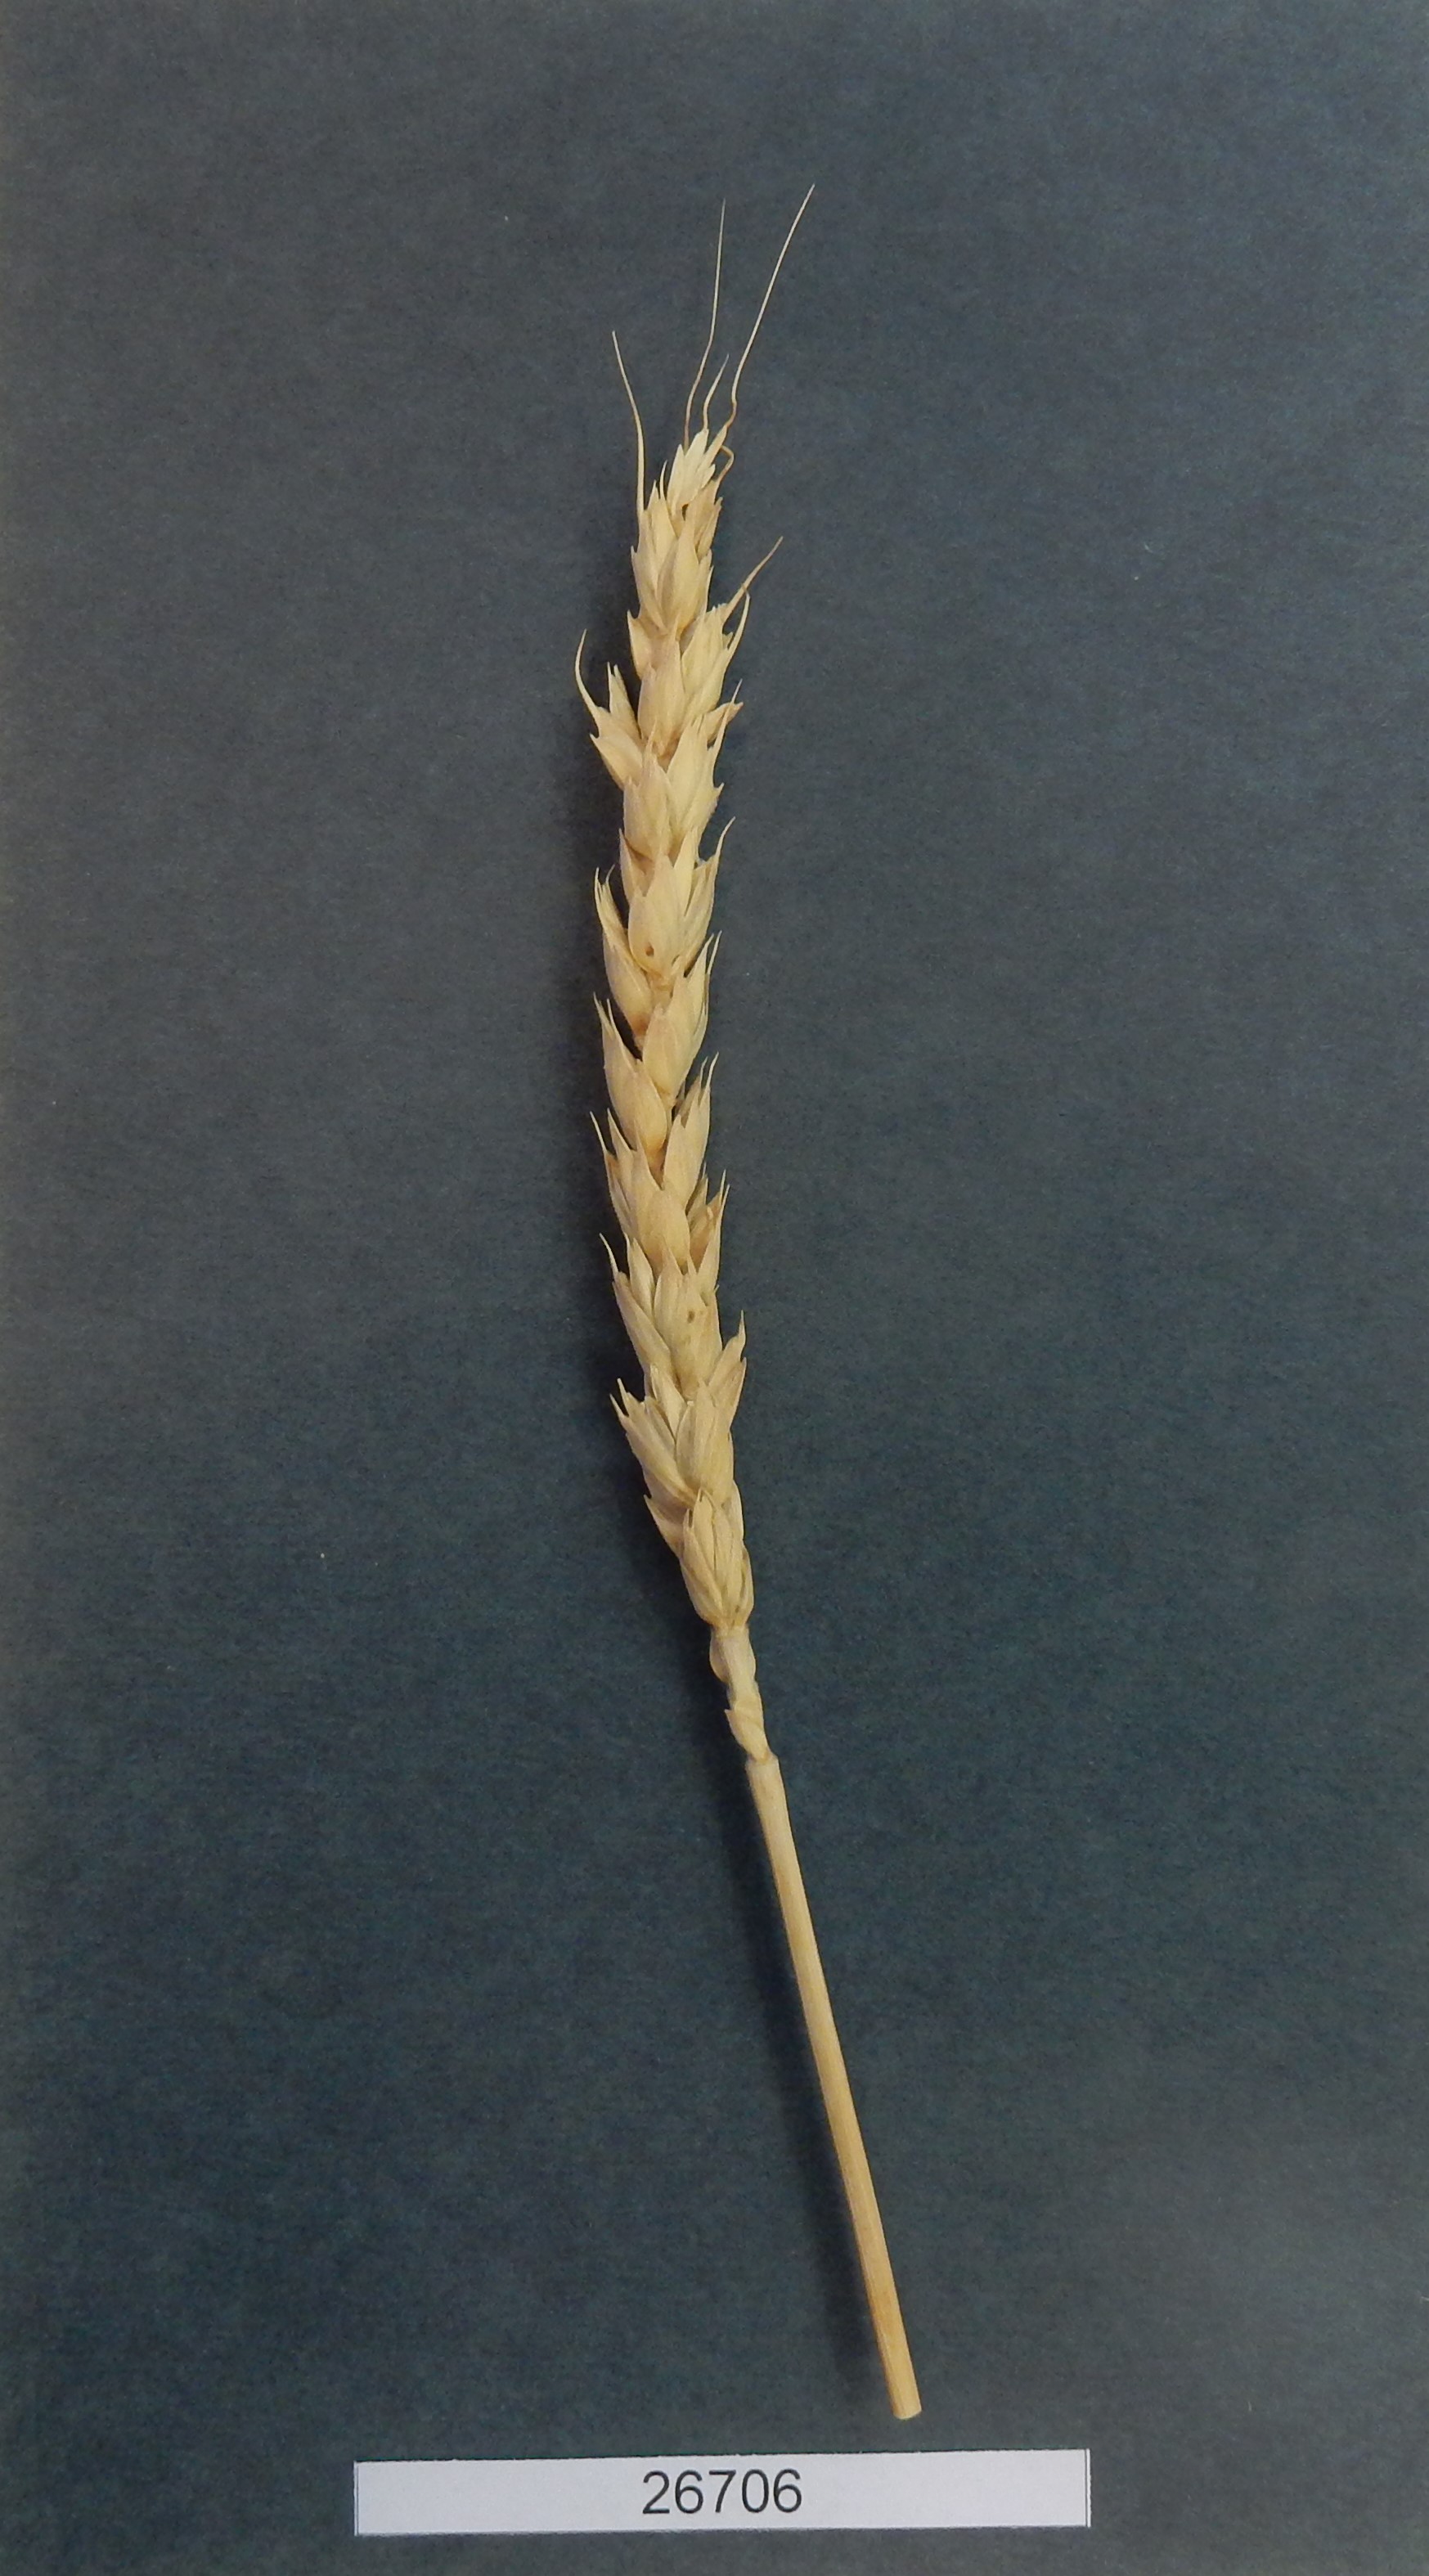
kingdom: Plantae
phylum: Tracheophyta
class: Liliopsida
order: Poales
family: Poaceae
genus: Triticum
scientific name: Triticum turgidum
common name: Wheat
